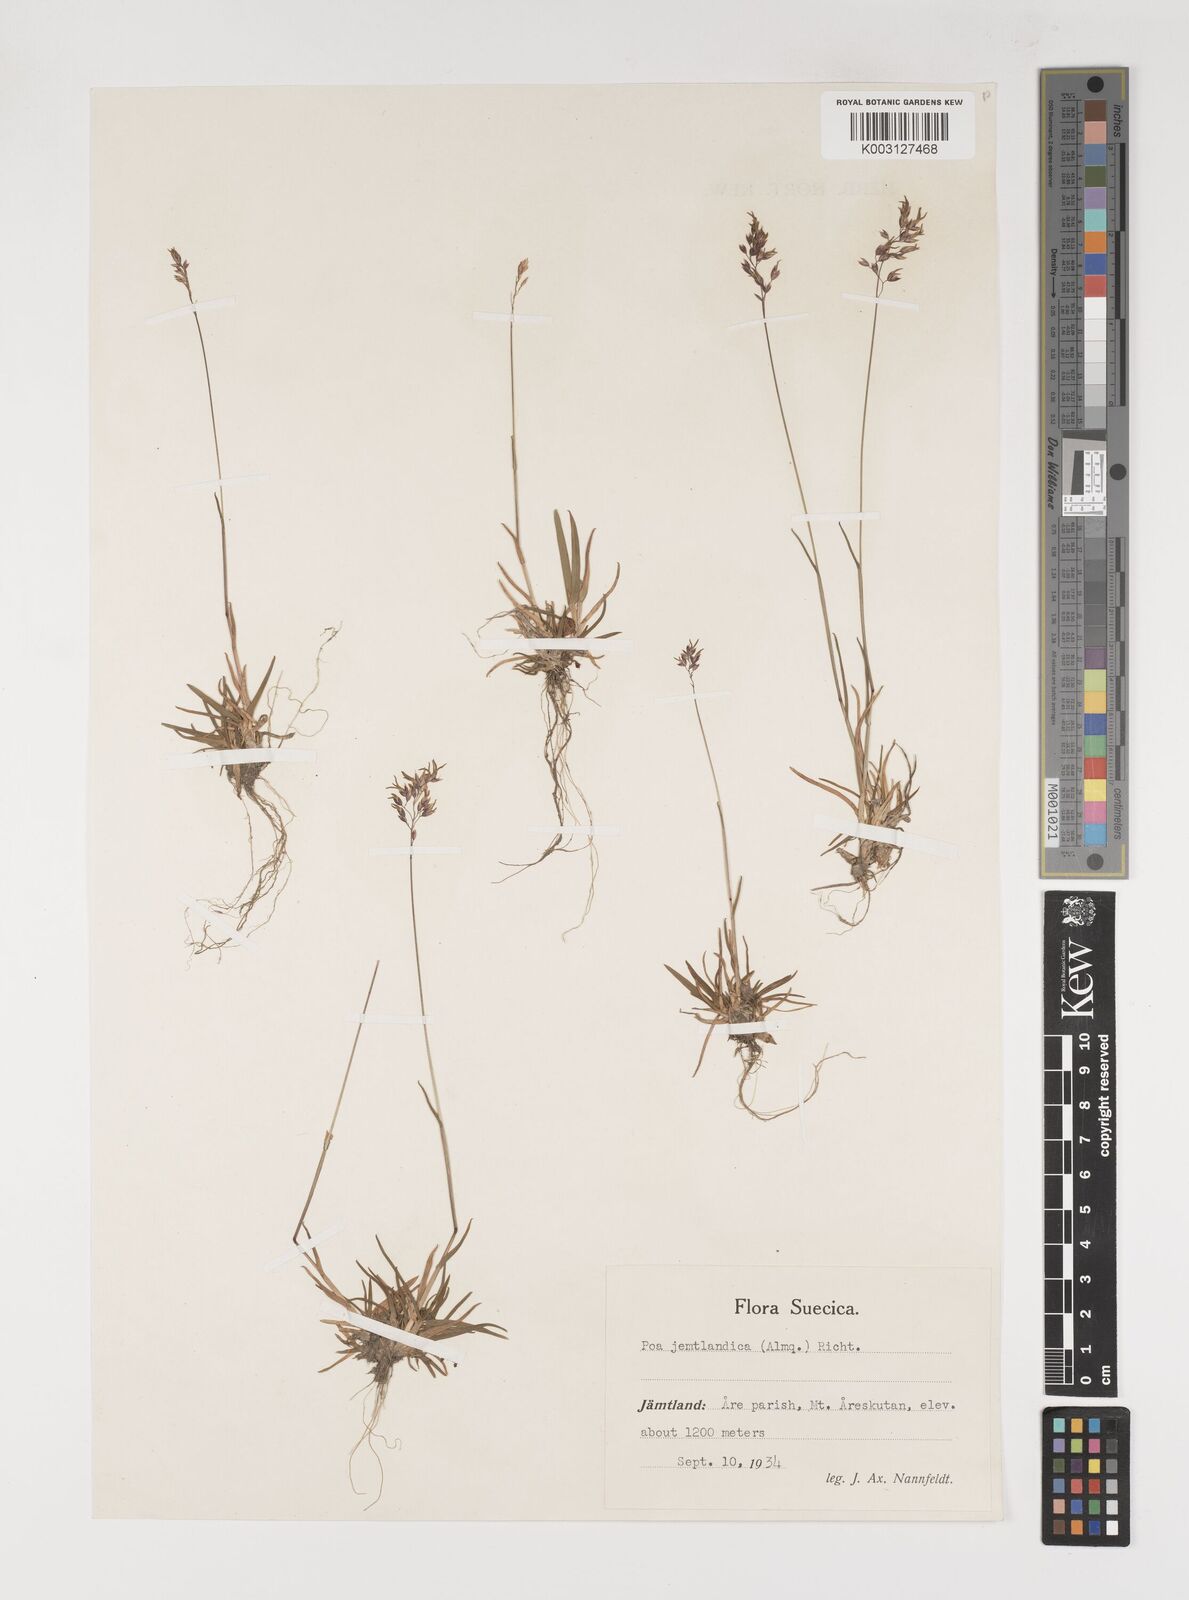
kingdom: Plantae
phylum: Tracheophyta
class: Liliopsida
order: Poales
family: Poaceae
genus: Poa
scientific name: Poa jemtlandica
